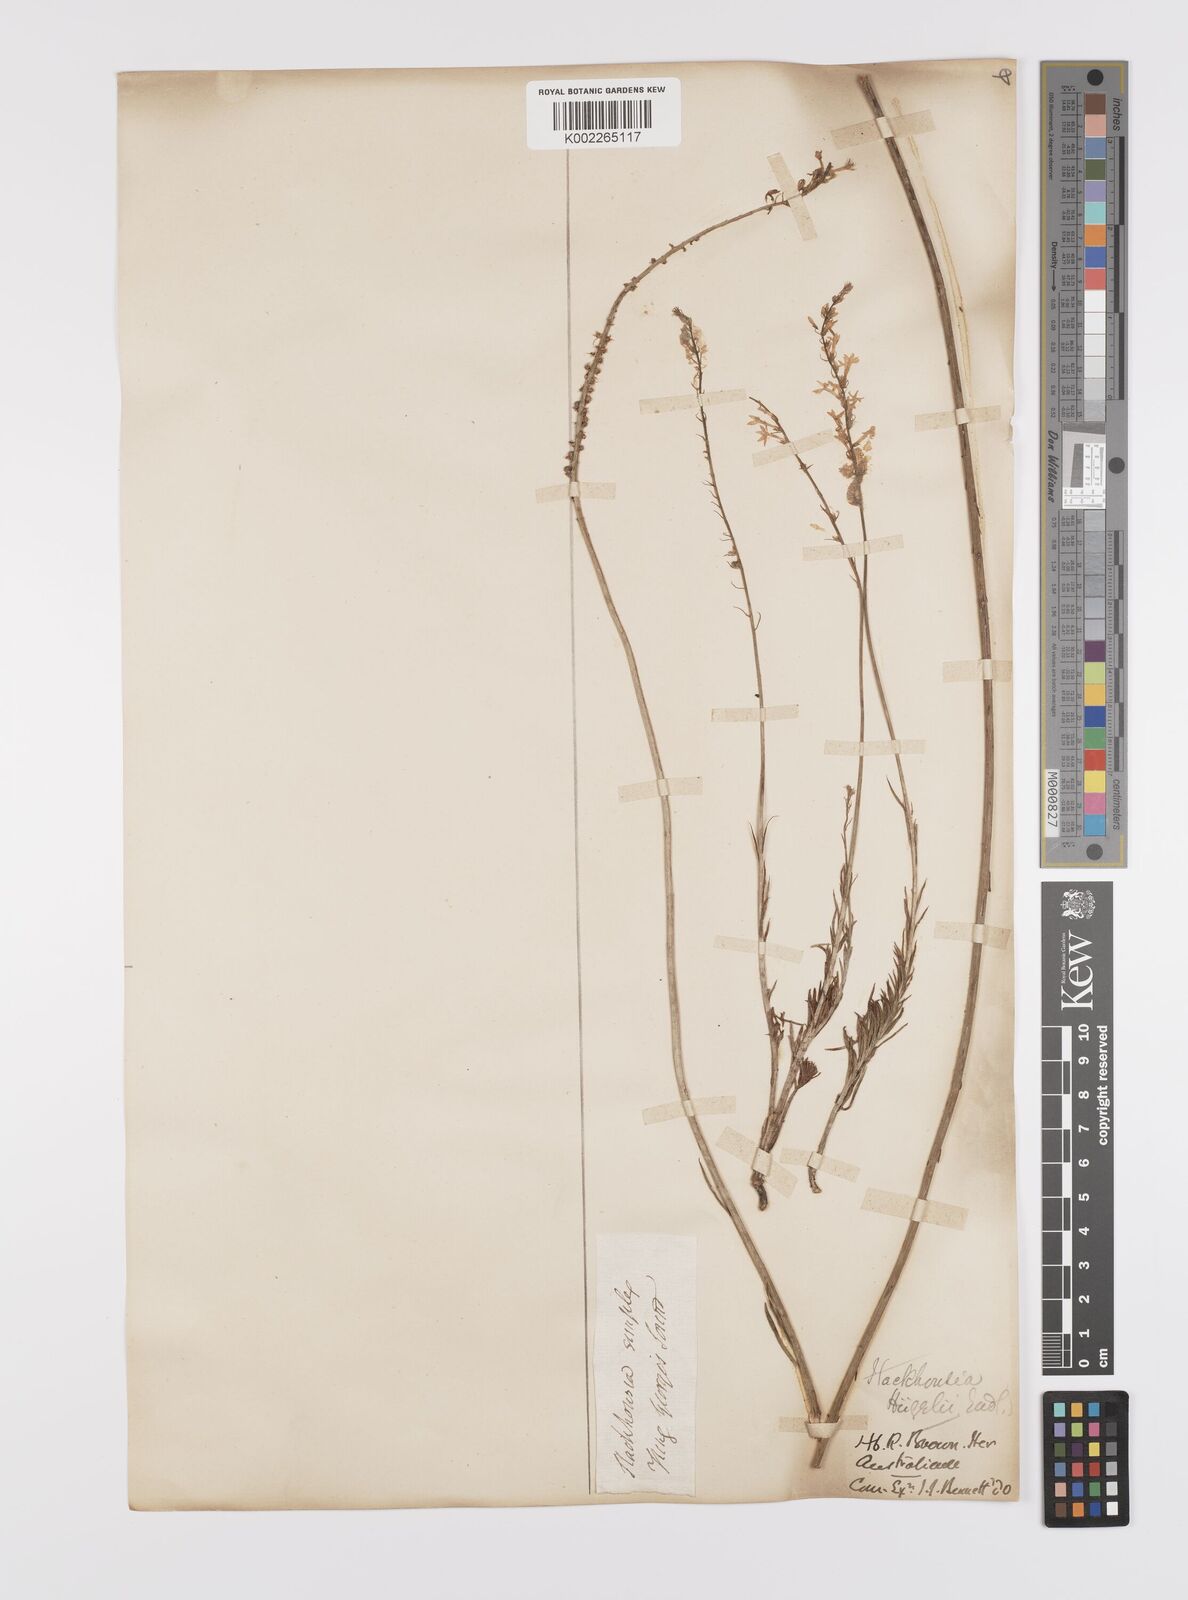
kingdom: Plantae
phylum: Tracheophyta
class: Magnoliopsida
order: Celastrales
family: Celastraceae
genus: Stackhousia
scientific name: Stackhousia monogyna
